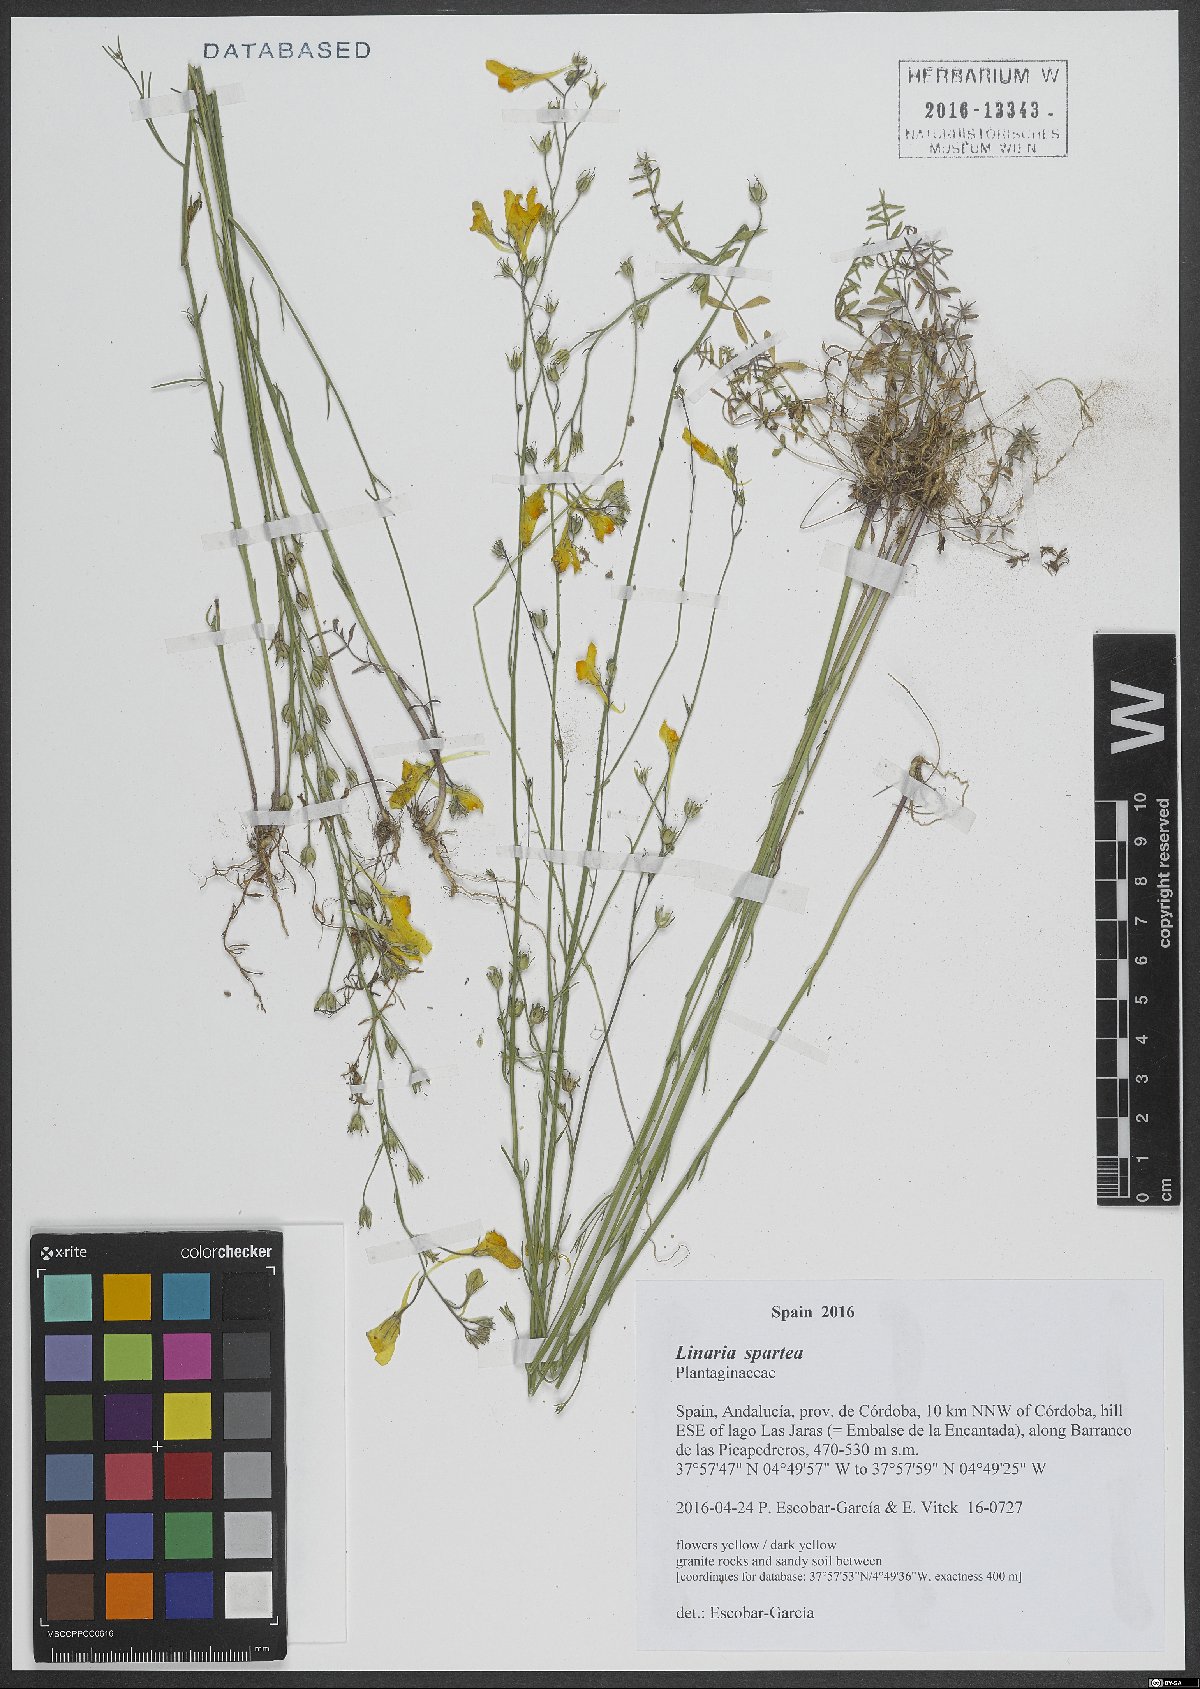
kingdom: Plantae
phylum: Tracheophyta
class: Magnoliopsida
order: Lamiales
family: Plantaginaceae
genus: Linaria
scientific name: Linaria spartea
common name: Ballast toadflax
